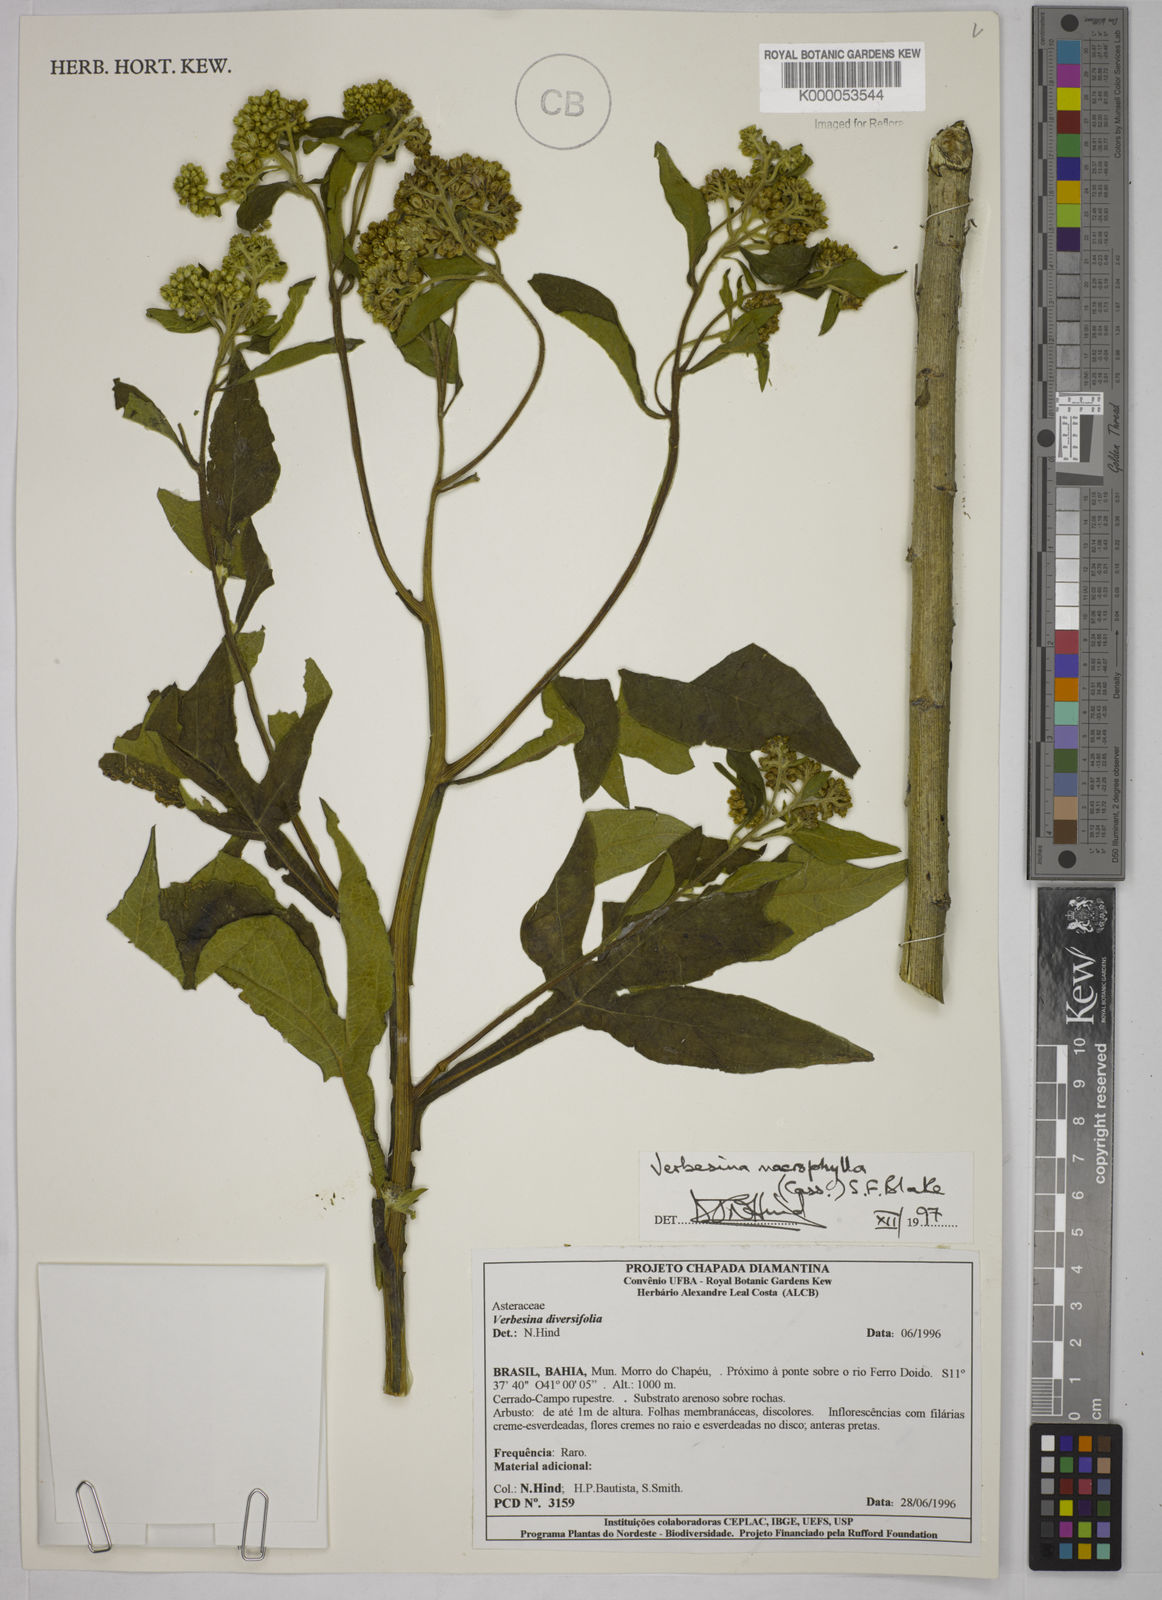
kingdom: Plantae
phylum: Tracheophyta
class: Magnoliopsida
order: Asterales
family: Asteraceae
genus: Verbesina
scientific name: Verbesina macrophylla
